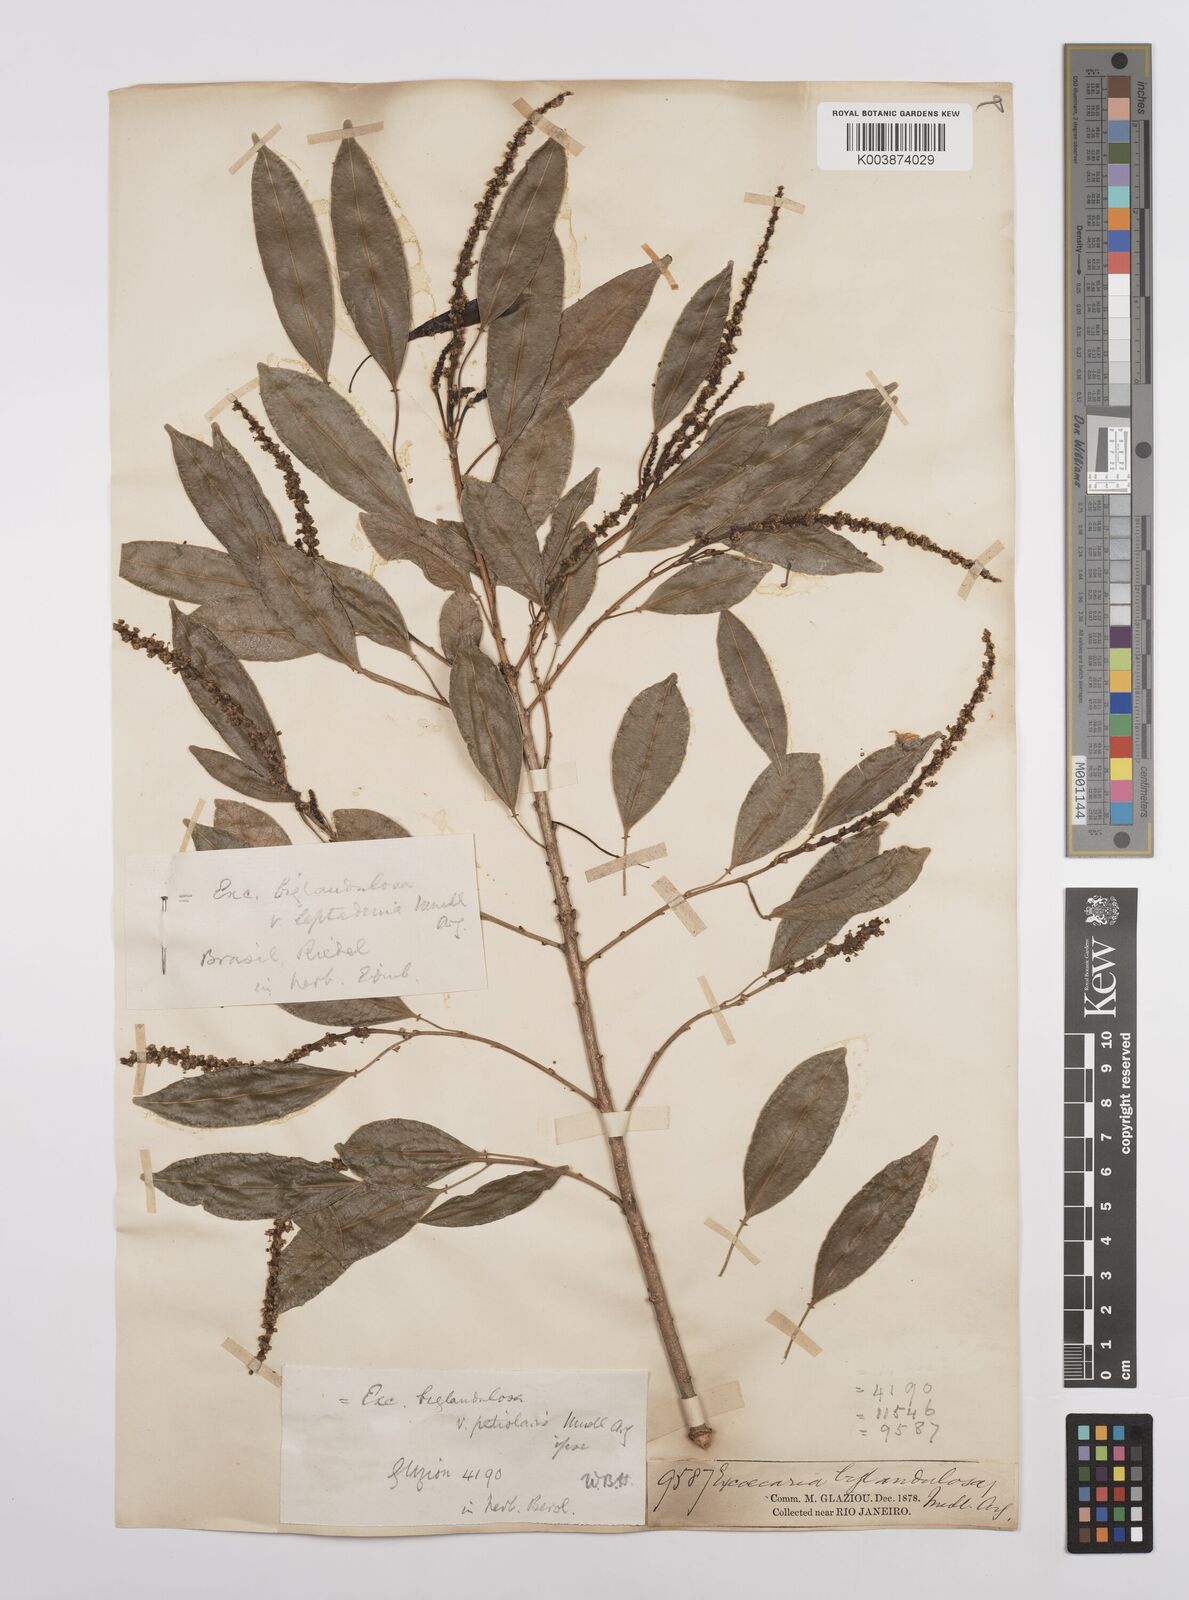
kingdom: Plantae
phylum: Tracheophyta
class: Magnoliopsida
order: Malpighiales
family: Euphorbiaceae
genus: Sapium
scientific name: Sapium glandulosum
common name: Milktree
